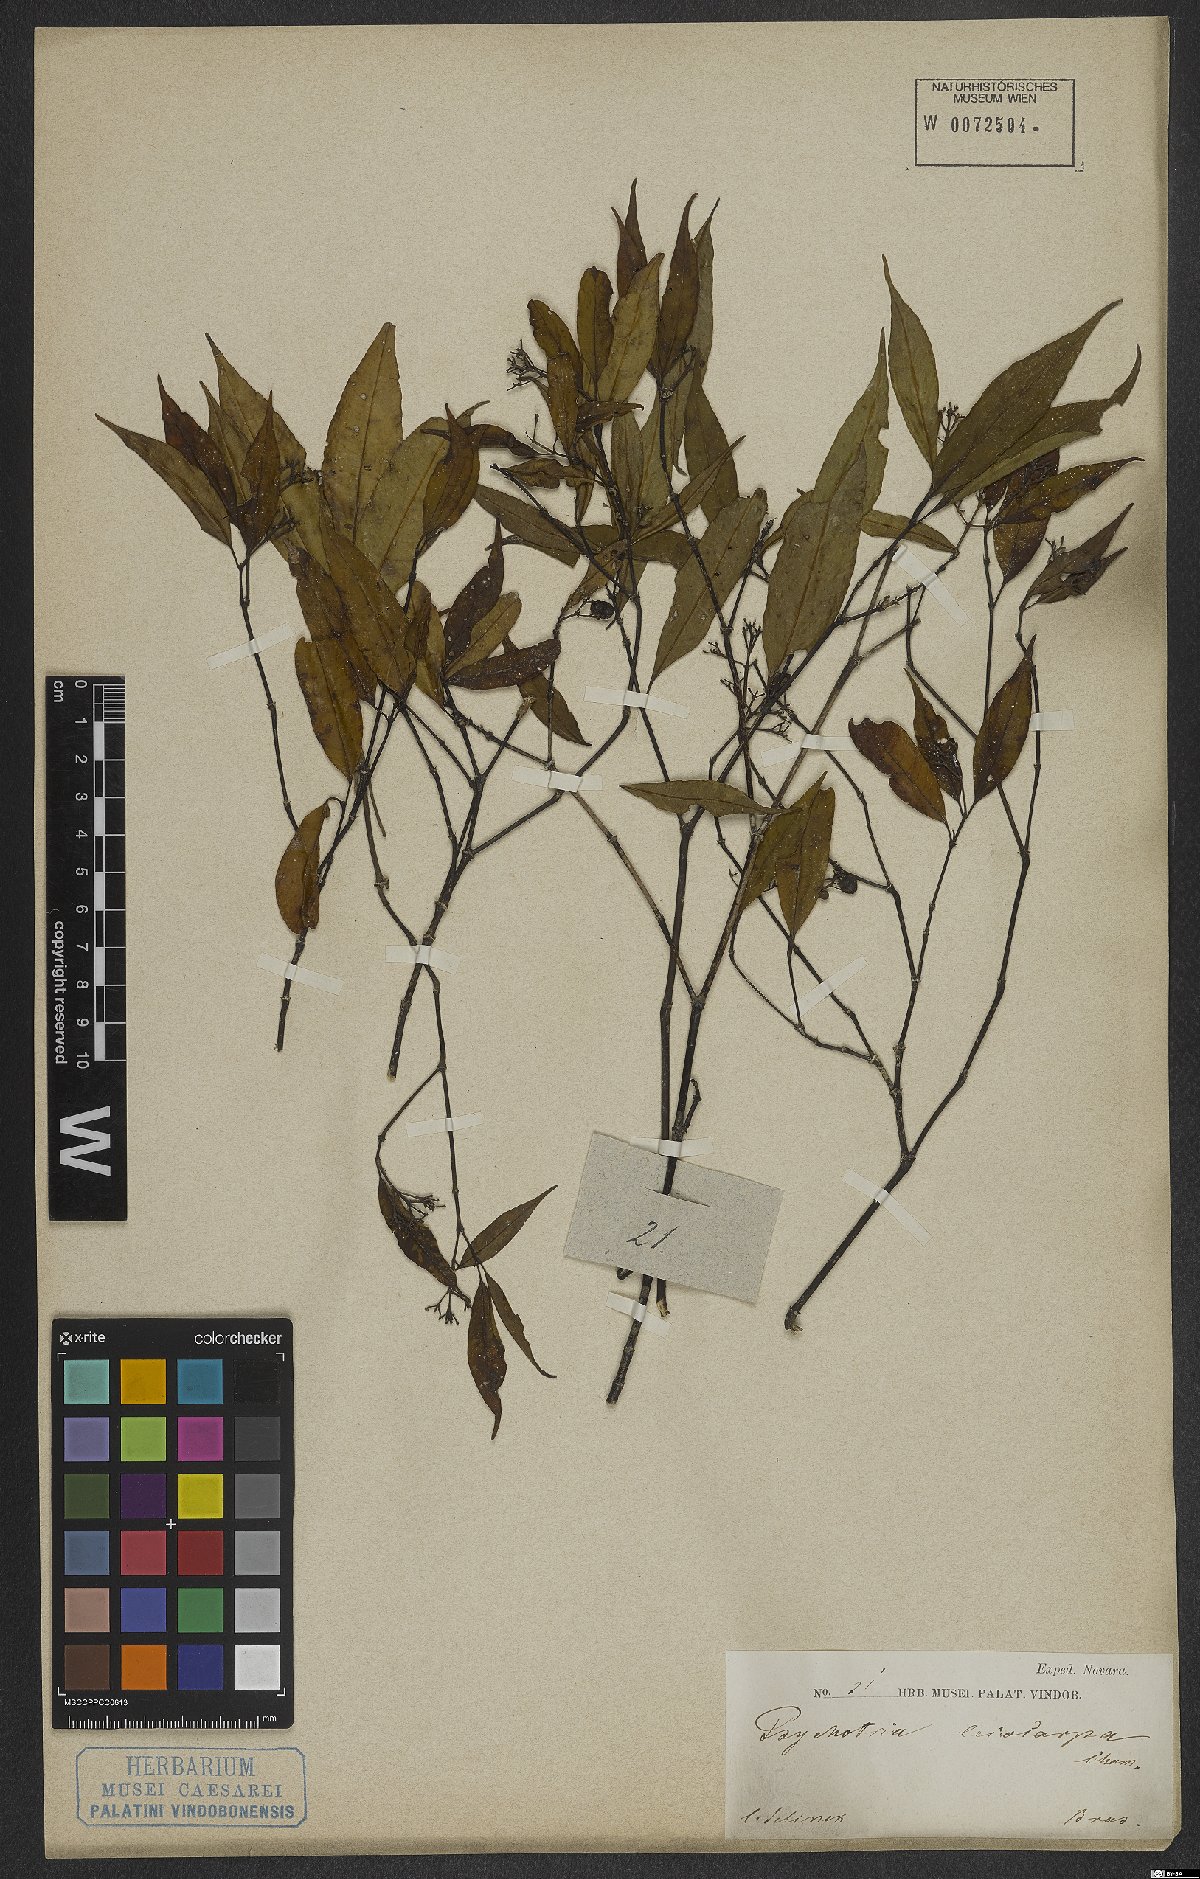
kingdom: Plantae
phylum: Tracheophyta
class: Magnoliopsida
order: Gentianales
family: Rubiaceae
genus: Psychotria
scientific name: Psychotria leiocarpa
